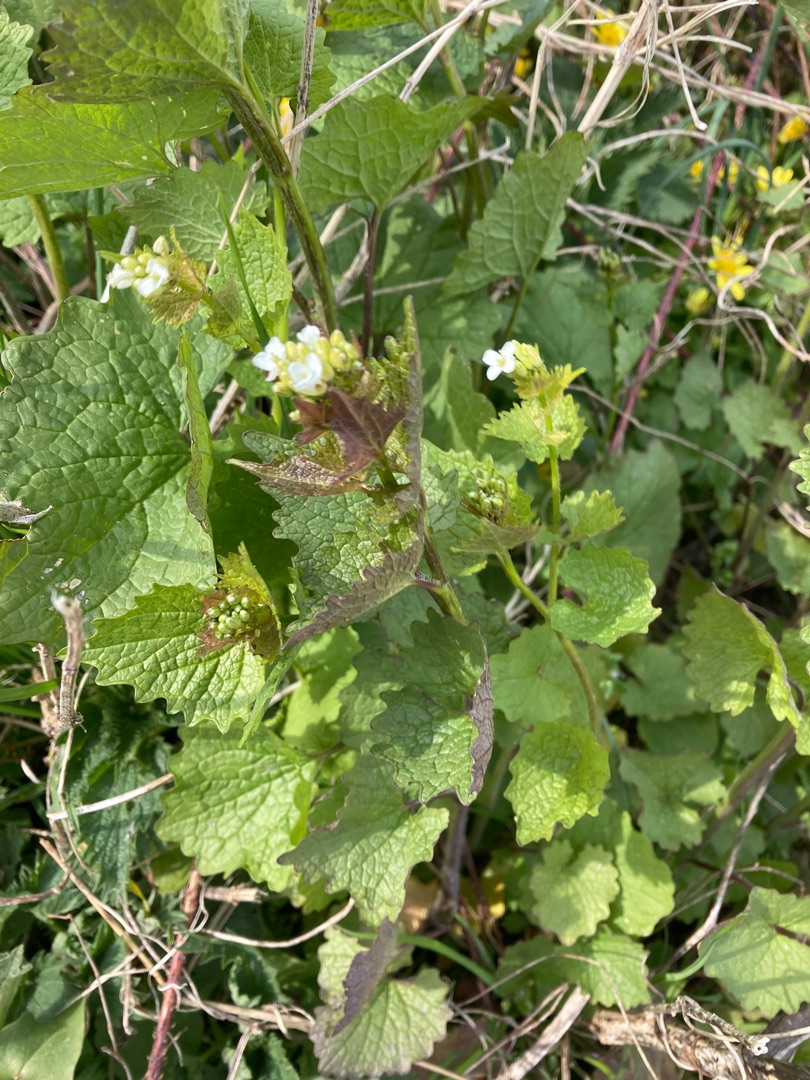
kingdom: Plantae
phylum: Tracheophyta
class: Magnoliopsida
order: Brassicales
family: Brassicaceae
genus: Alliaria
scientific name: Alliaria petiolata
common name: Løgkarse
